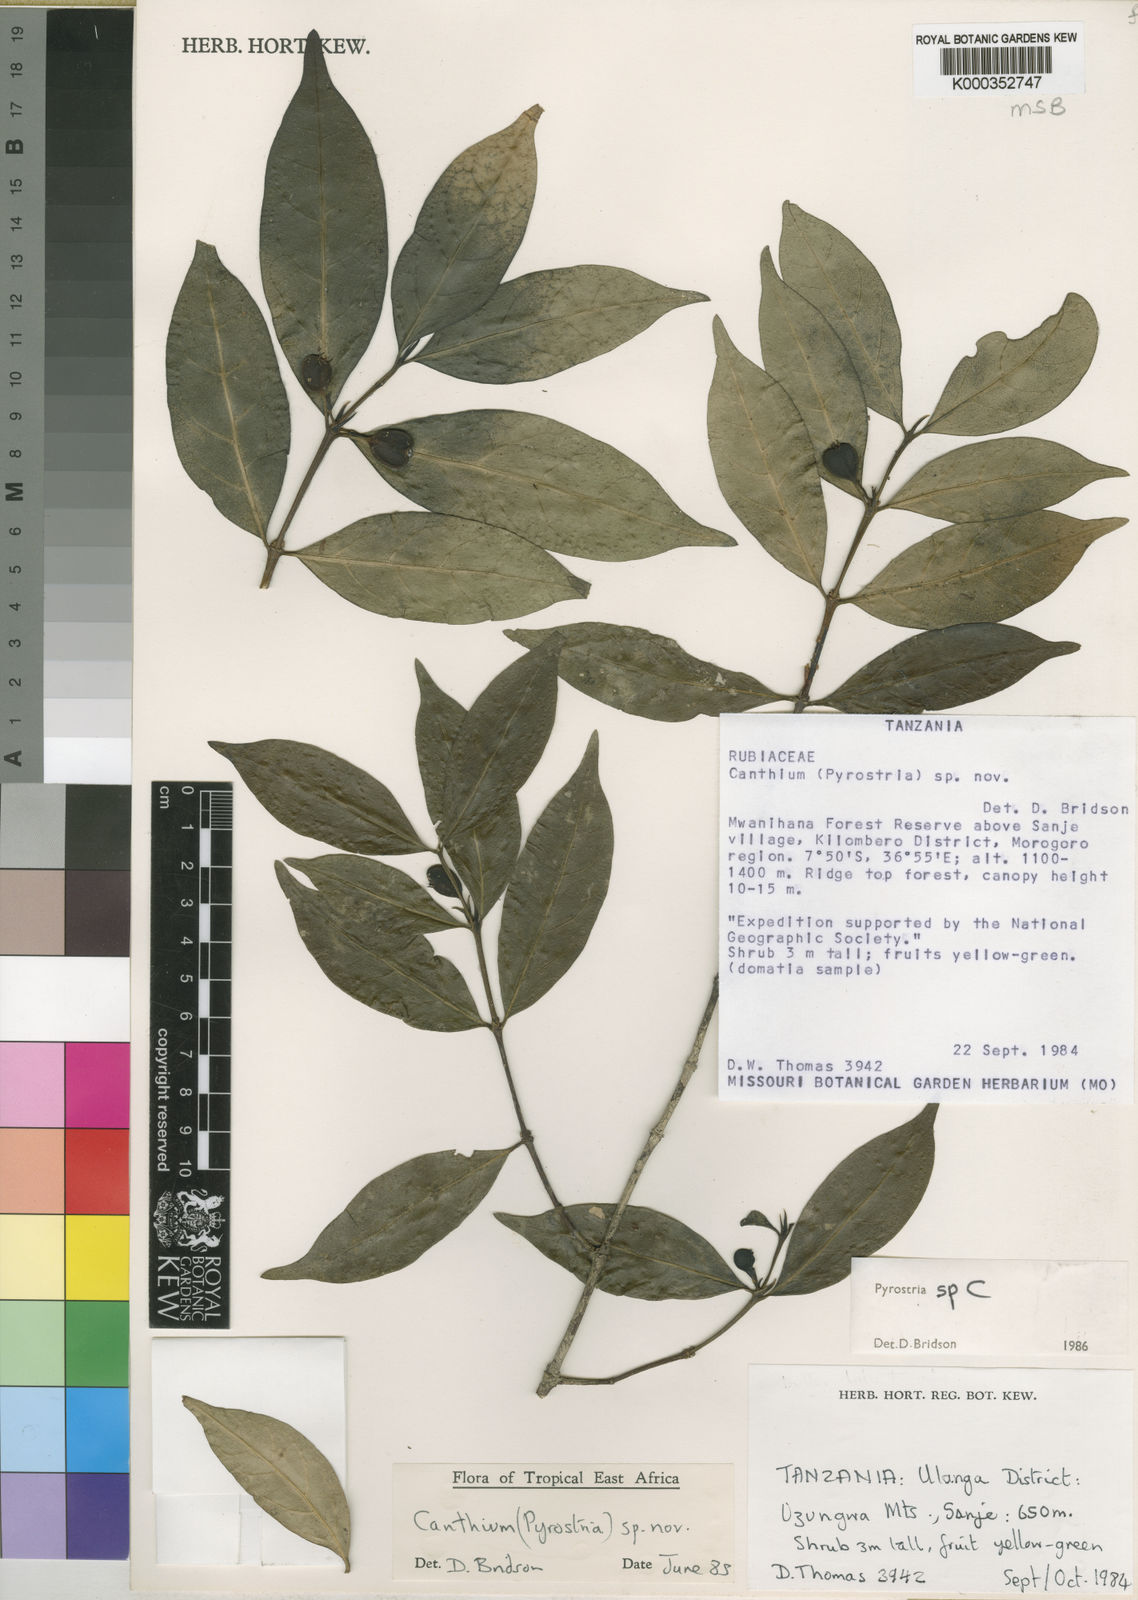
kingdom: Plantae
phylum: Tracheophyta
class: Magnoliopsida
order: Gentianales
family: Rubiaceae
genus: Pyrostria
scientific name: Pyrostria uzungwaensis
